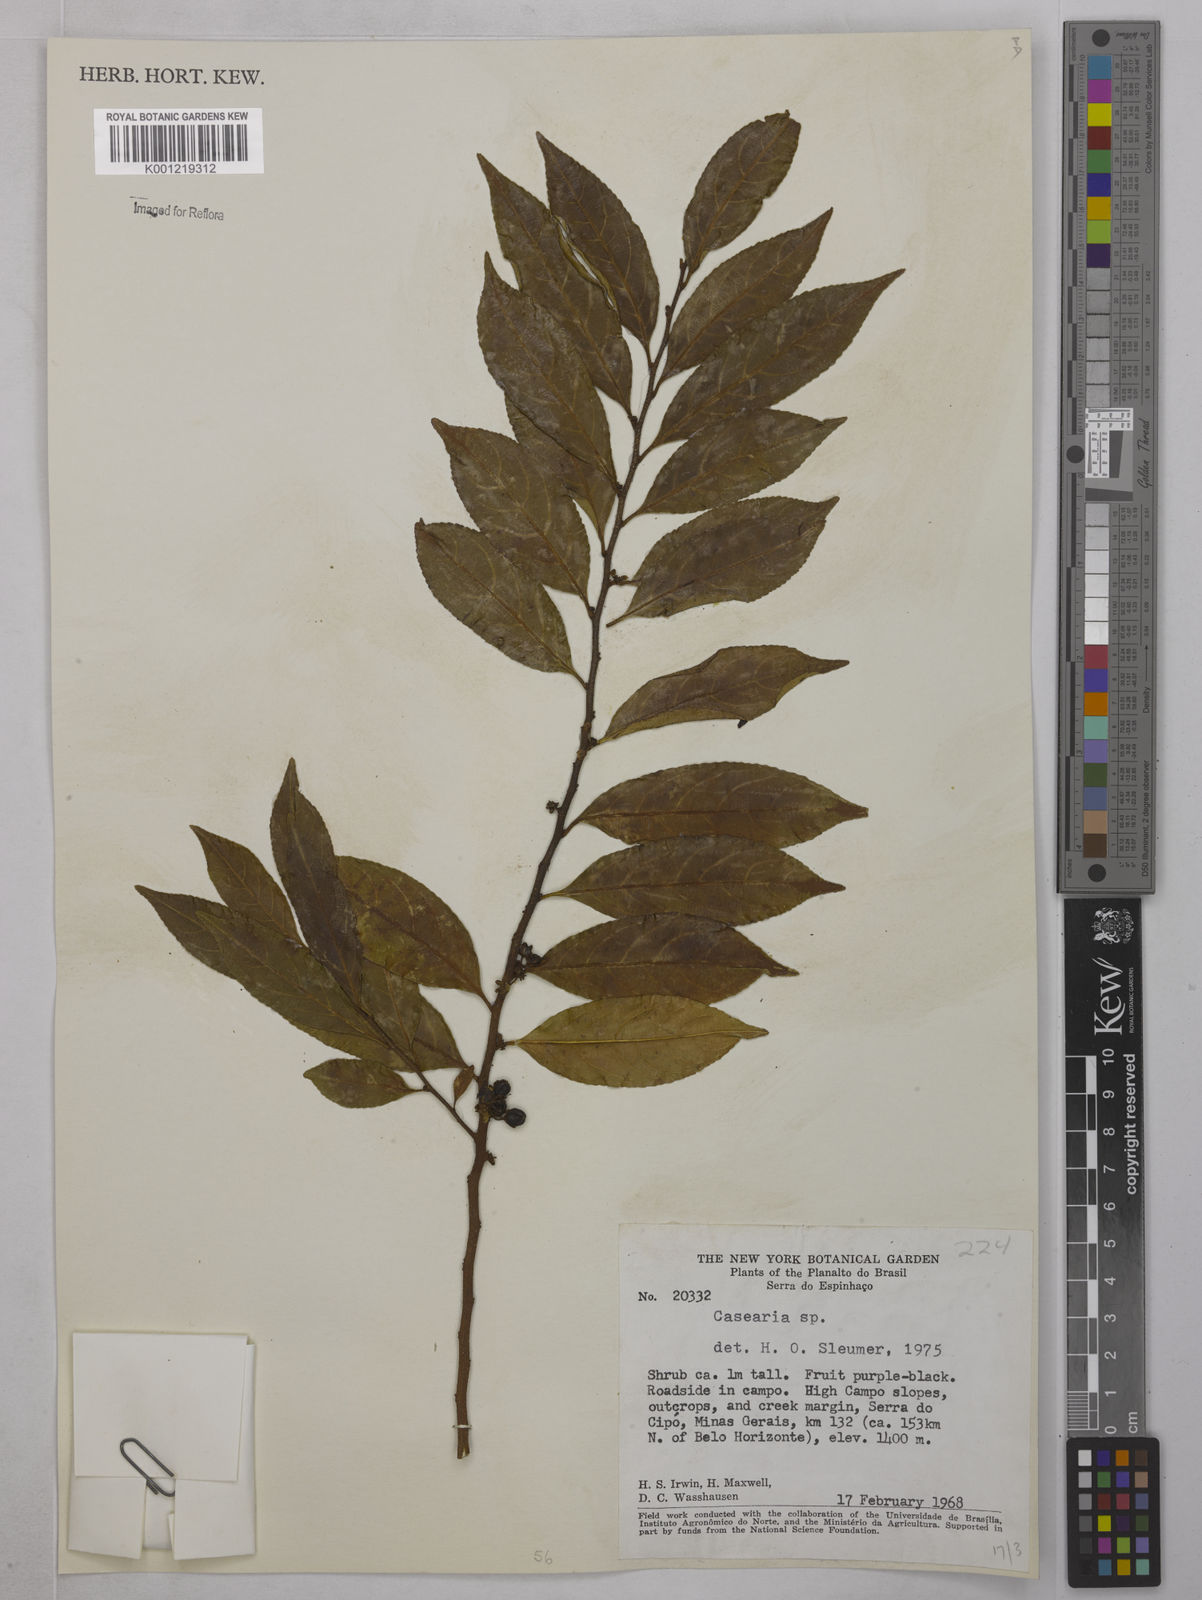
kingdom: Plantae
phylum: Tracheophyta
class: Magnoliopsida
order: Malpighiales
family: Salicaceae
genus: Casearia
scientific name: Casearia
